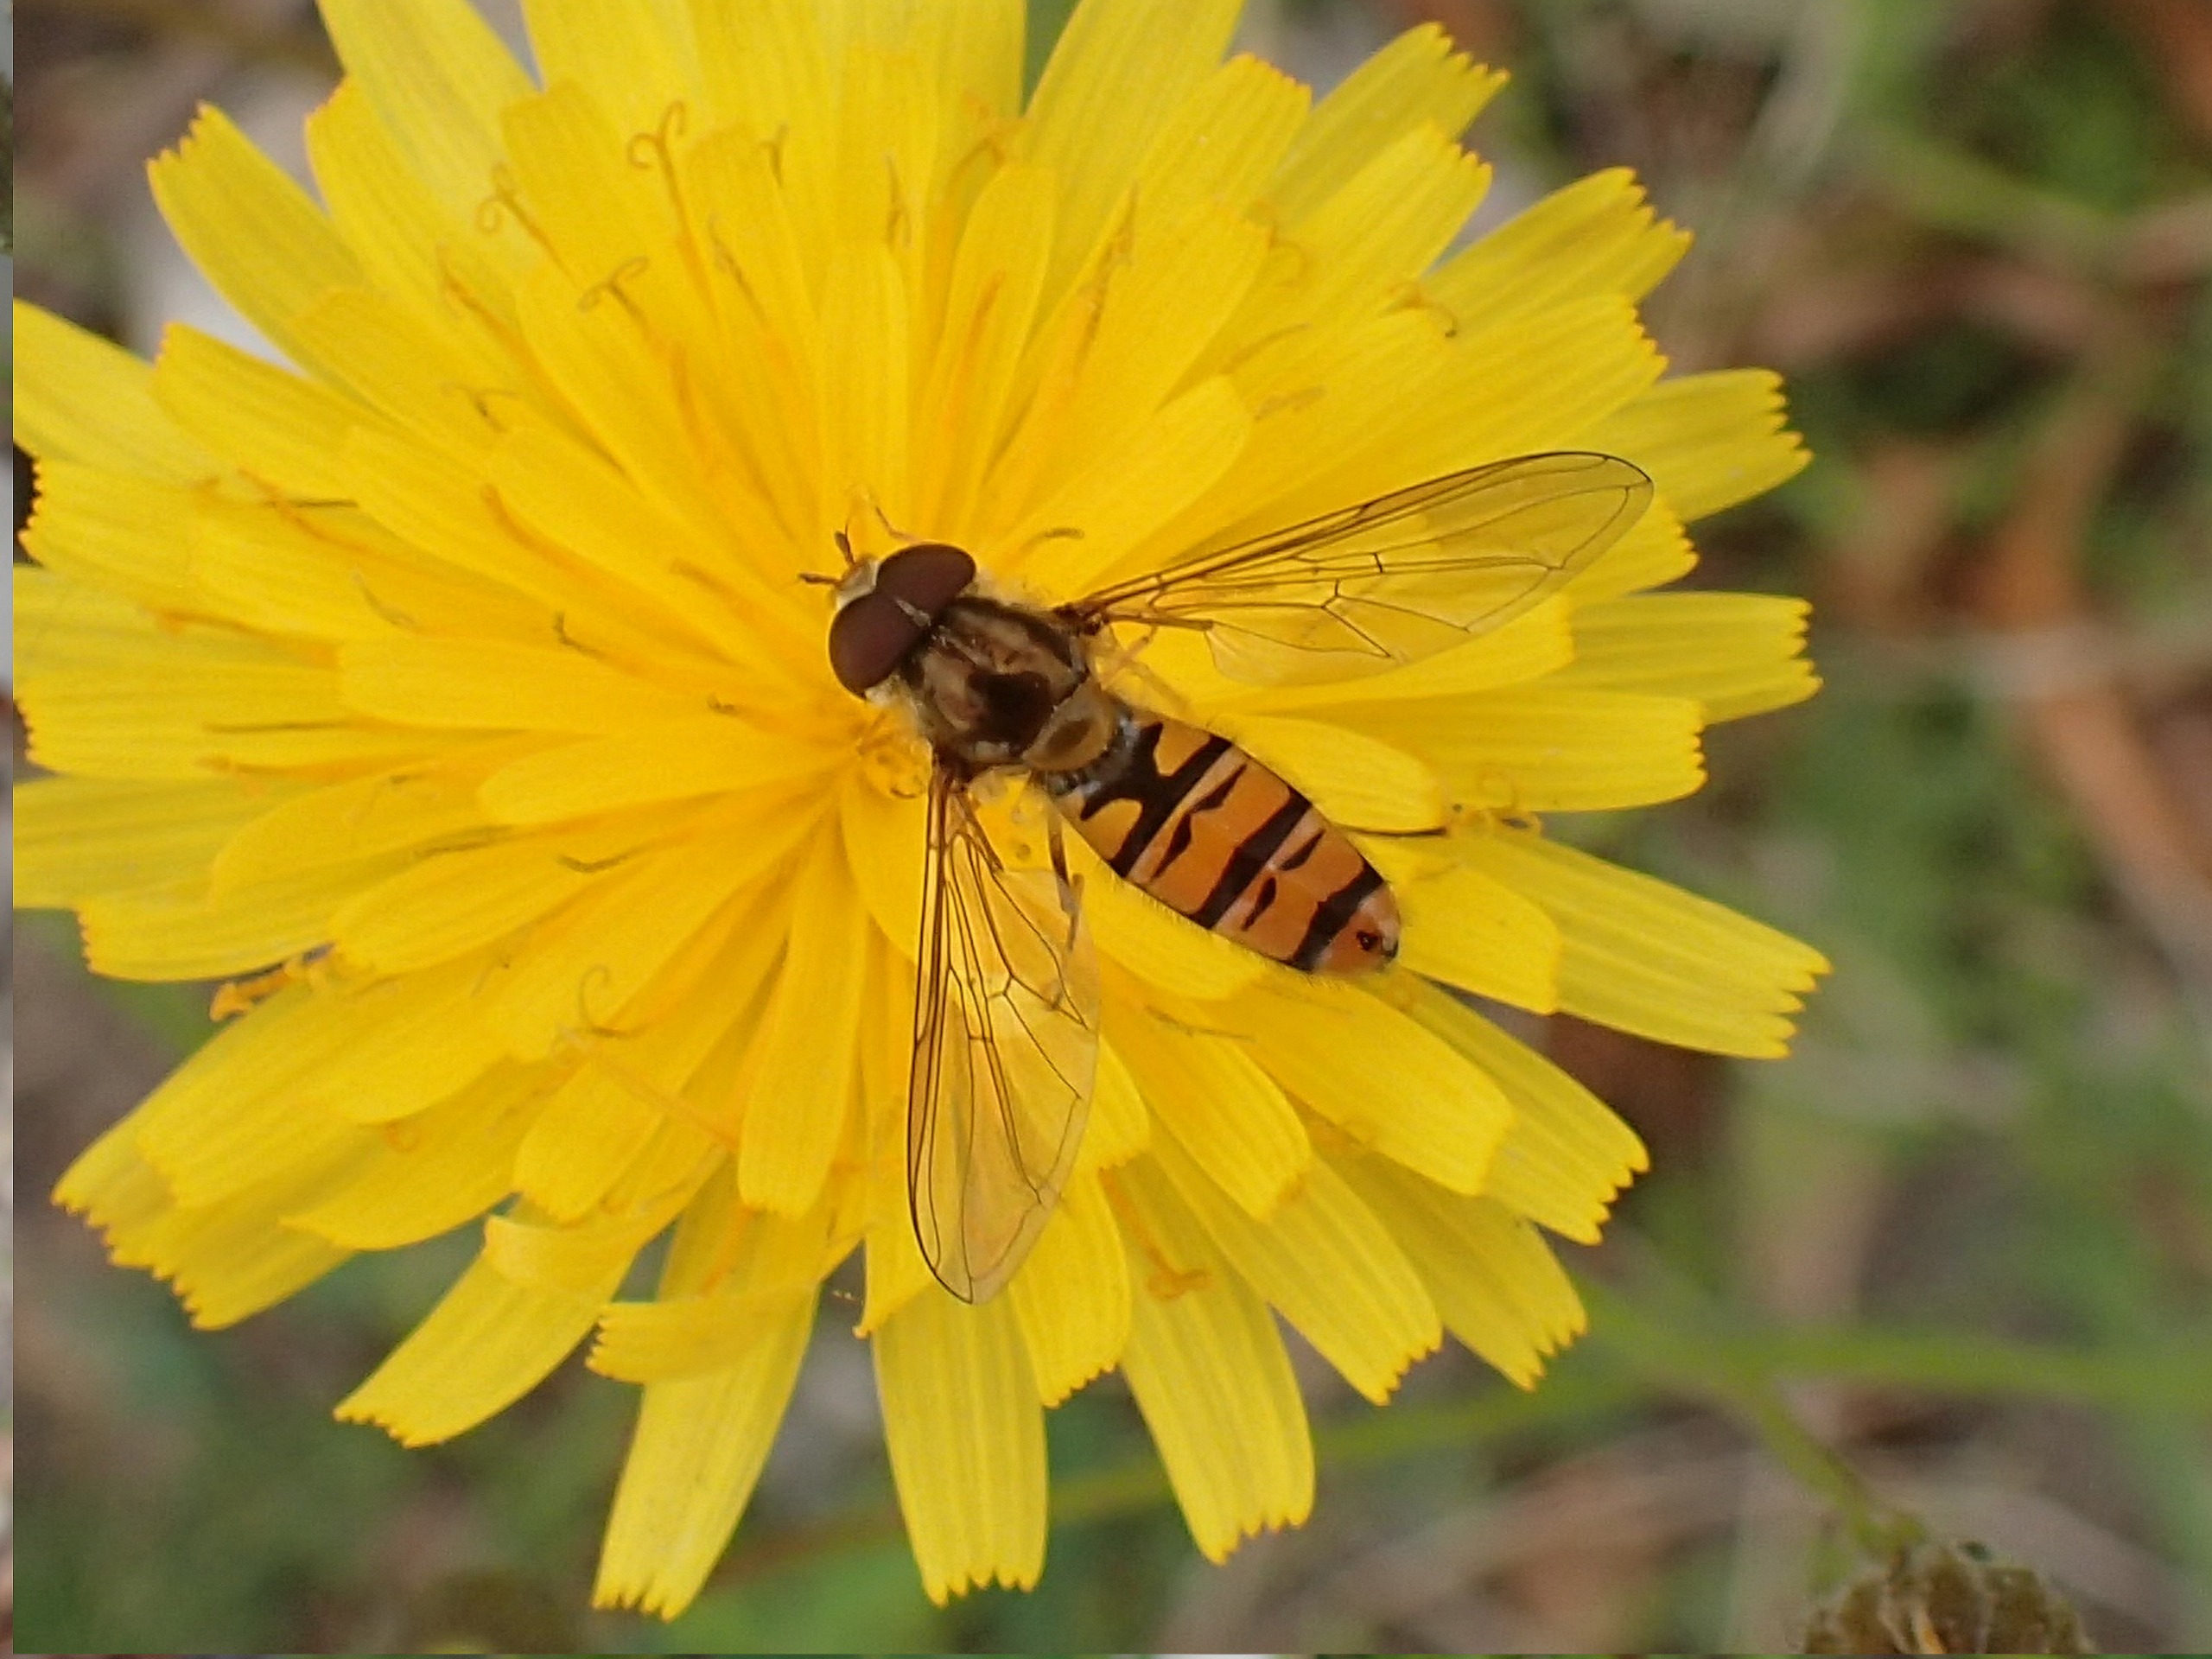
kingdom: Animalia
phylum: Arthropoda
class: Insecta
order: Diptera
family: Syrphidae
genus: Episyrphus
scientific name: Episyrphus balteatus
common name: Dobbeltbåndet svirreflue
